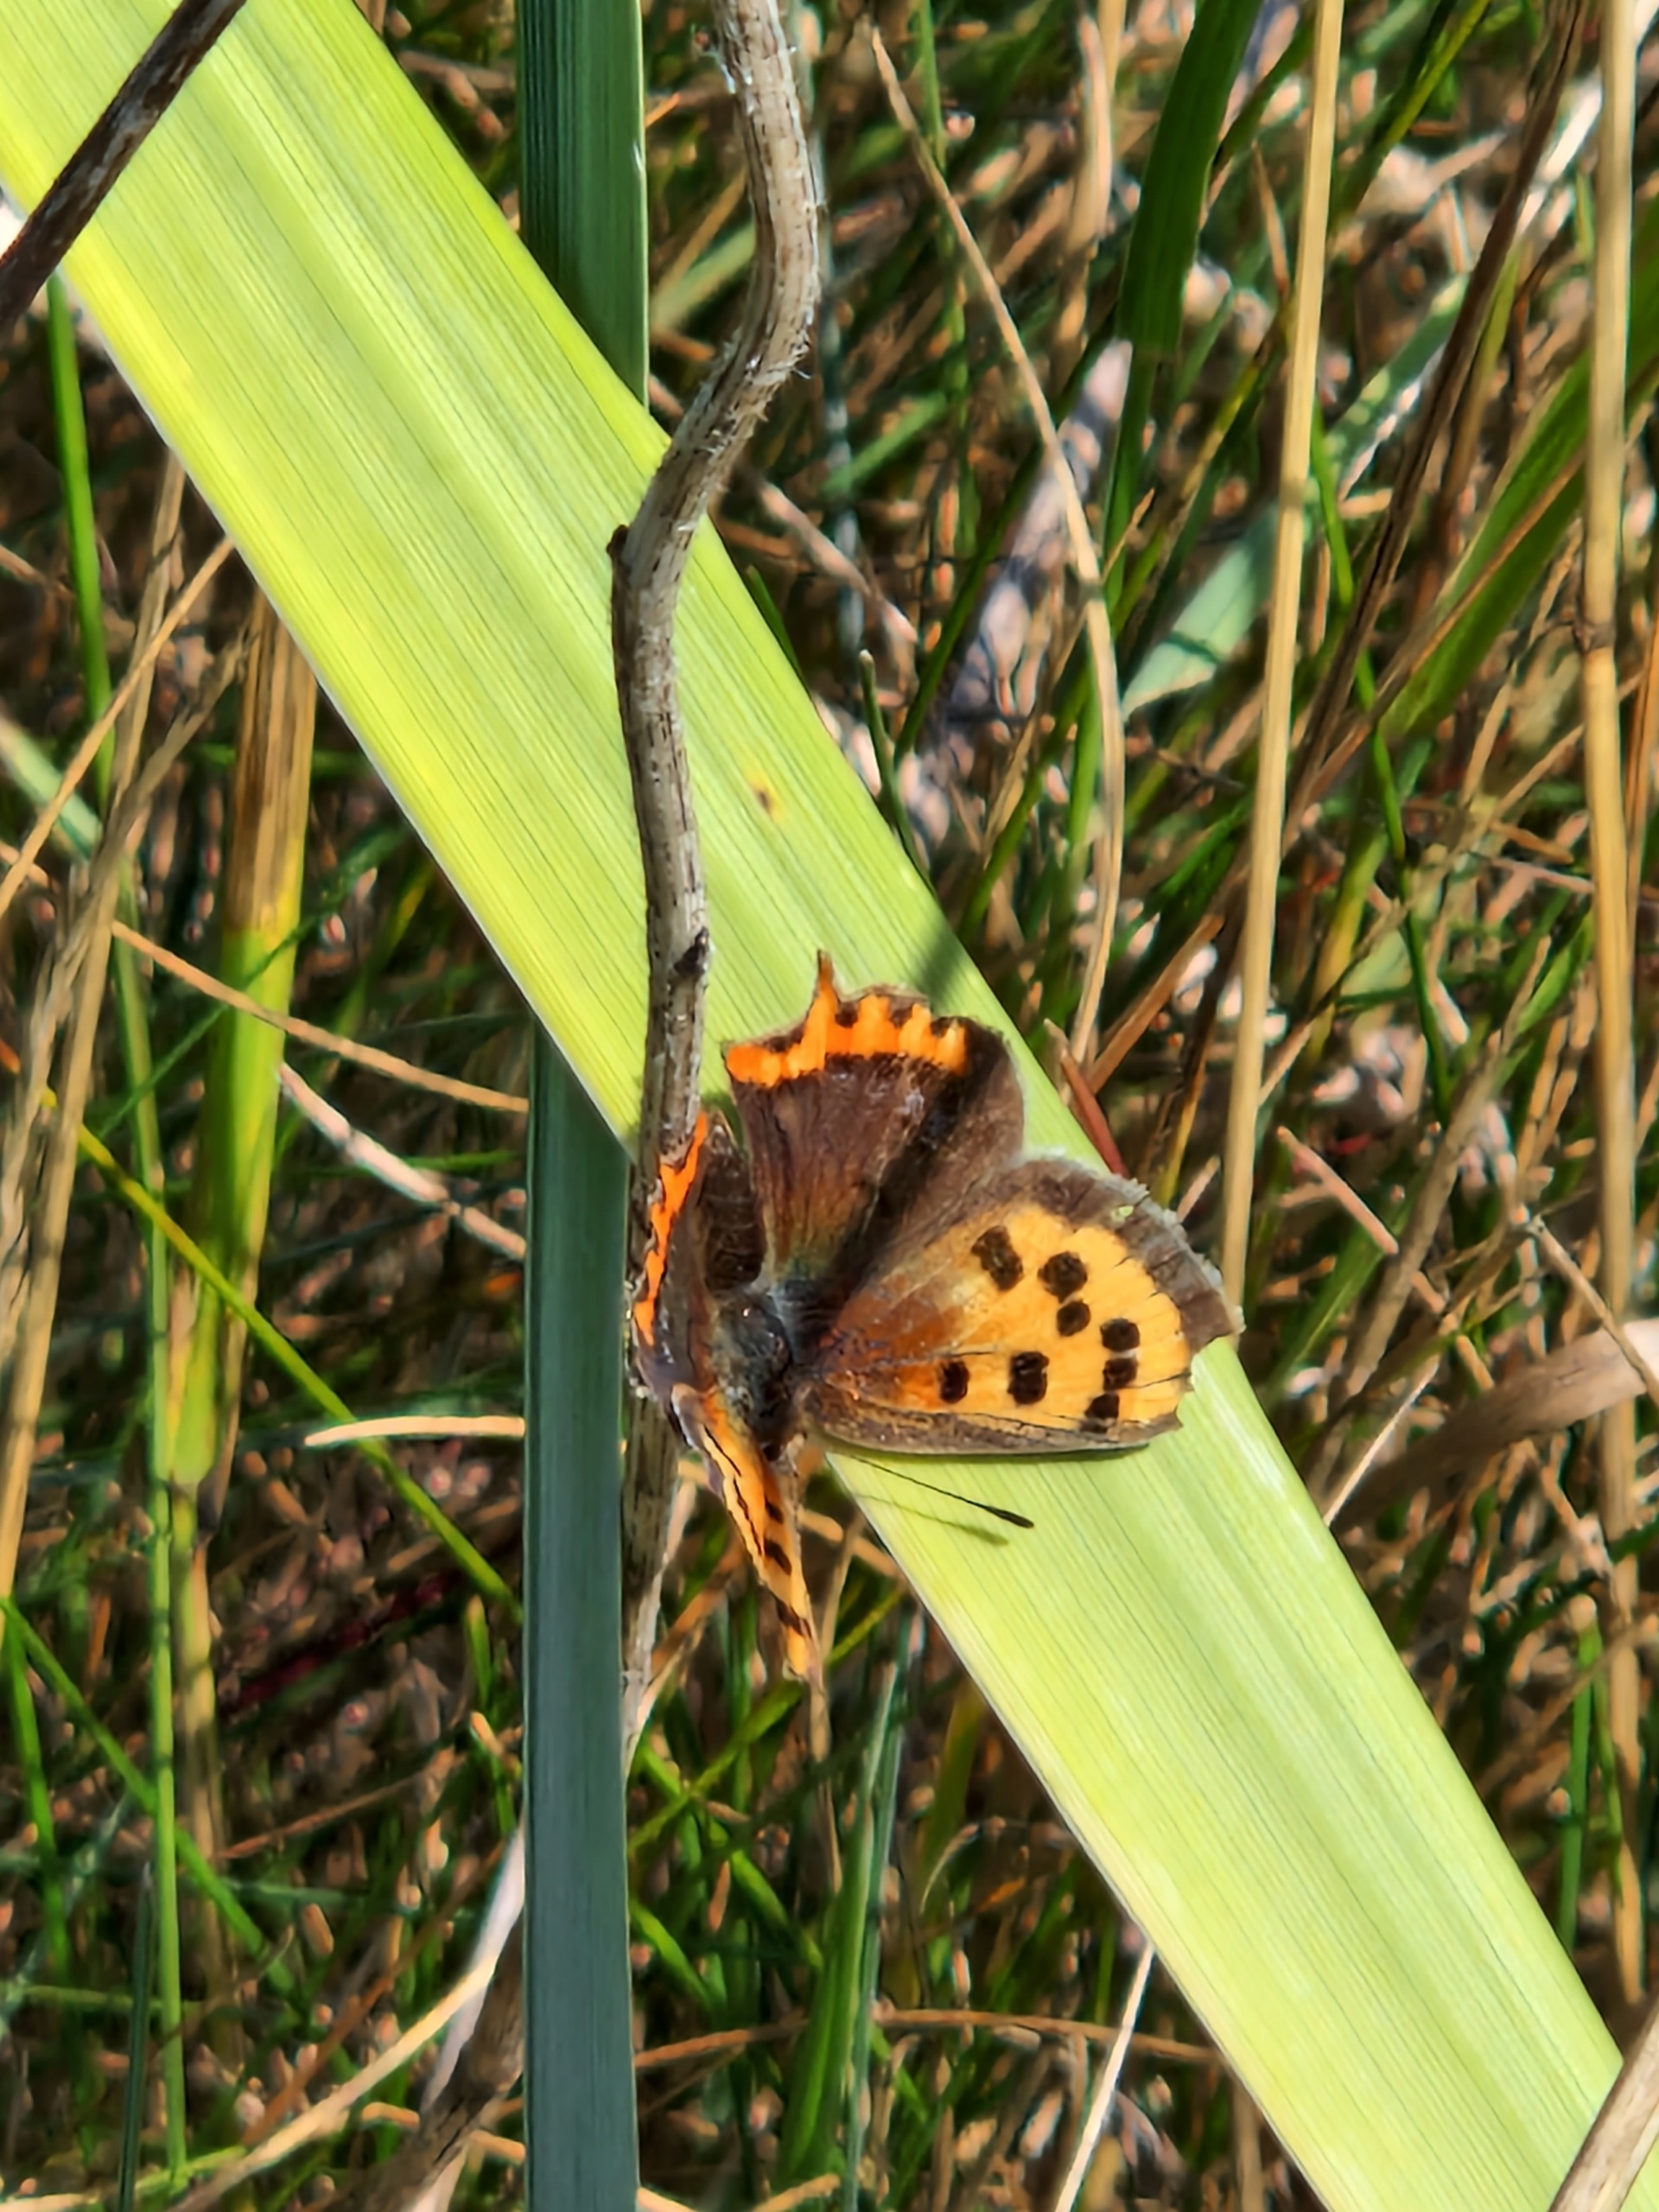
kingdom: Animalia
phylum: Arthropoda
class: Insecta
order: Lepidoptera
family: Lycaenidae
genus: Lycaena
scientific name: Lycaena phlaeas
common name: Lille ildfugl
